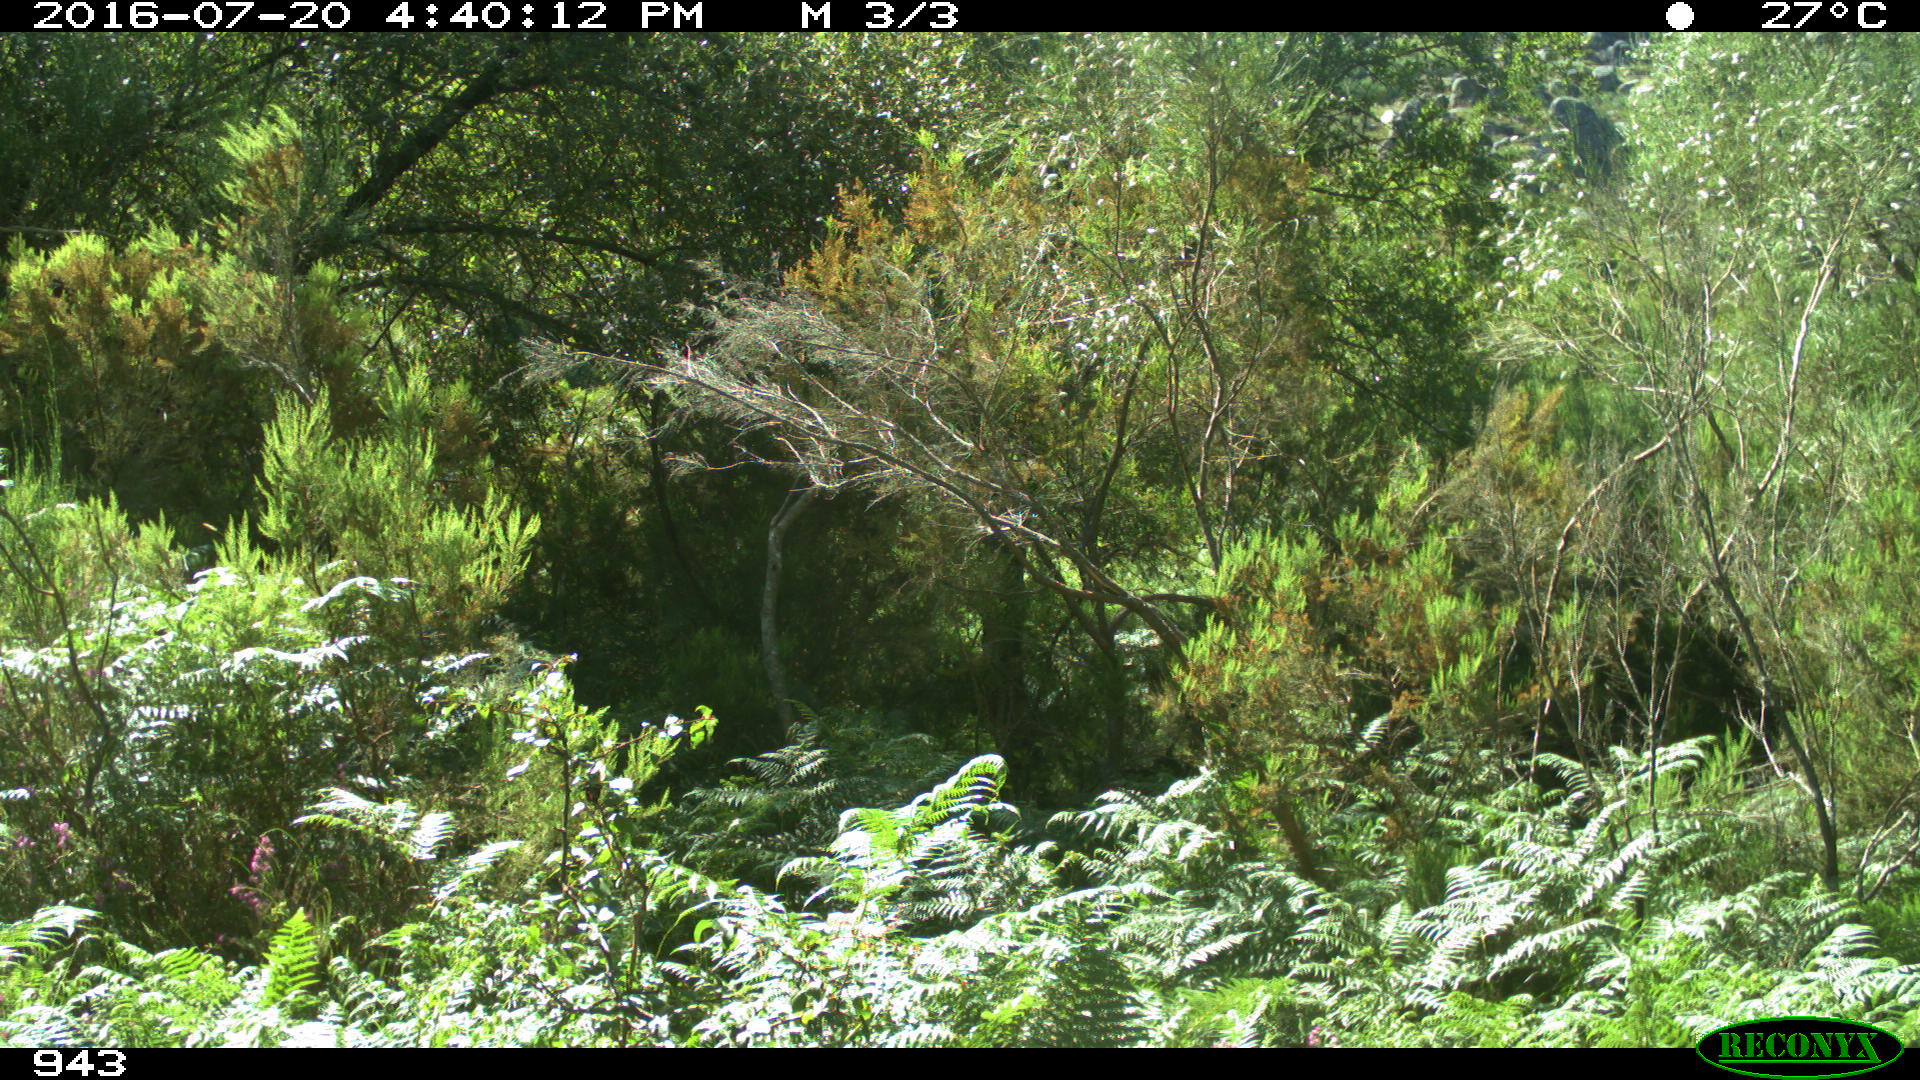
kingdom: Animalia
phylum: Chordata
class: Mammalia
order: Artiodactyla
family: Bovidae
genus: Bos
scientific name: Bos taurus
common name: Domesticated cattle
